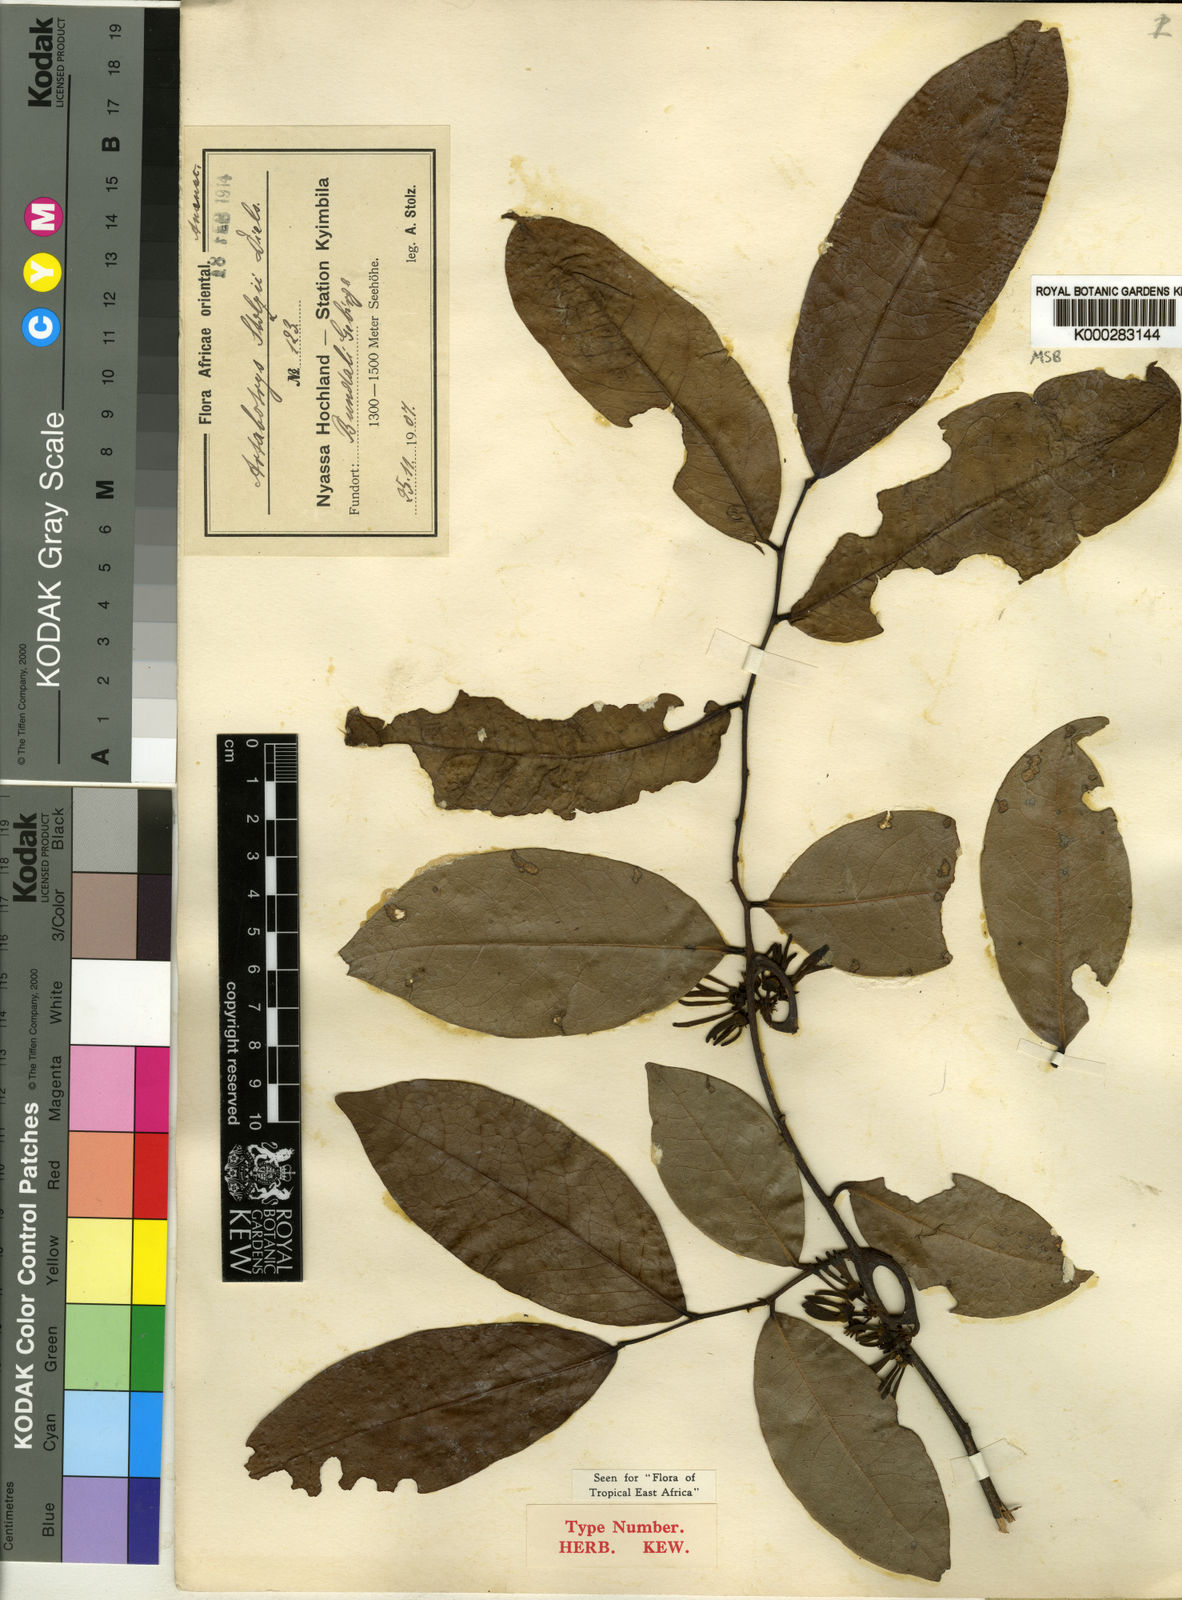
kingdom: Plantae
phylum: Tracheophyta
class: Magnoliopsida
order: Magnoliales
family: Annonaceae
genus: Artabotrys
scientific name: Artabotrys stolzii
